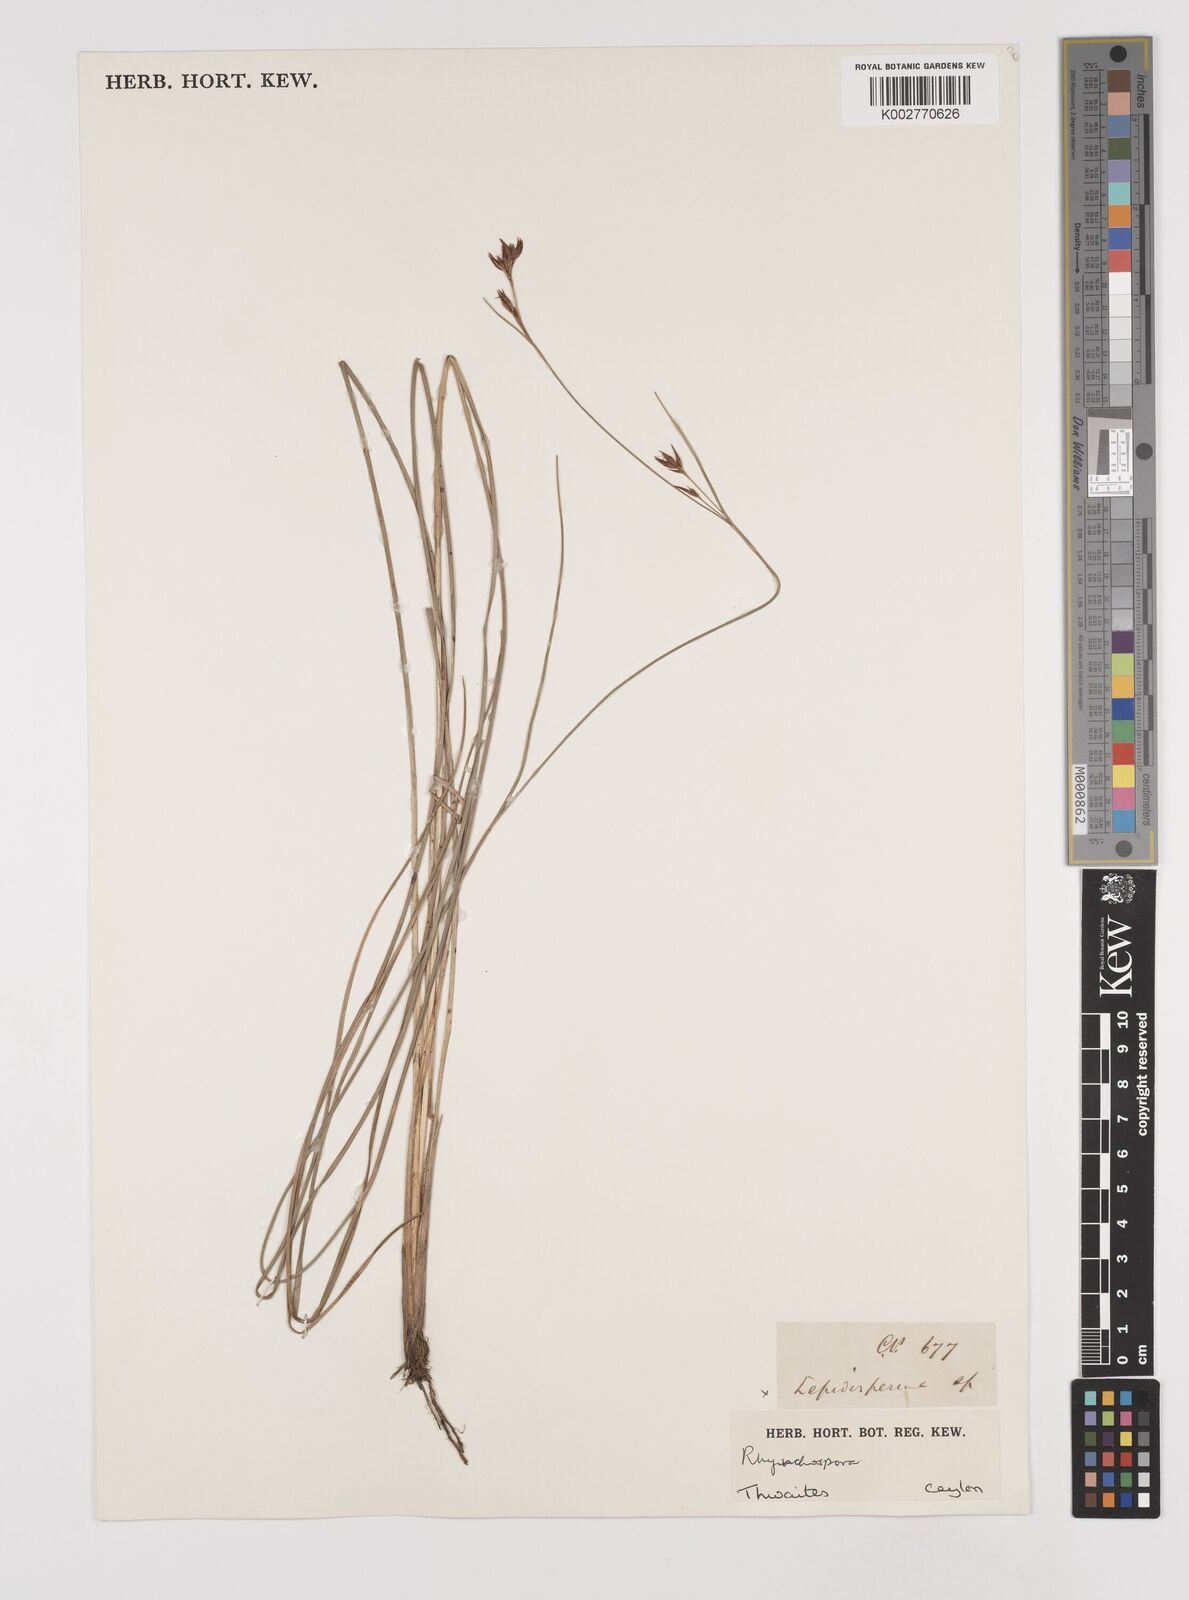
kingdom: Plantae
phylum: Tracheophyta
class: Liliopsida
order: Poales
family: Cyperaceae
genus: Rhynchospora
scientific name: Rhynchospora
